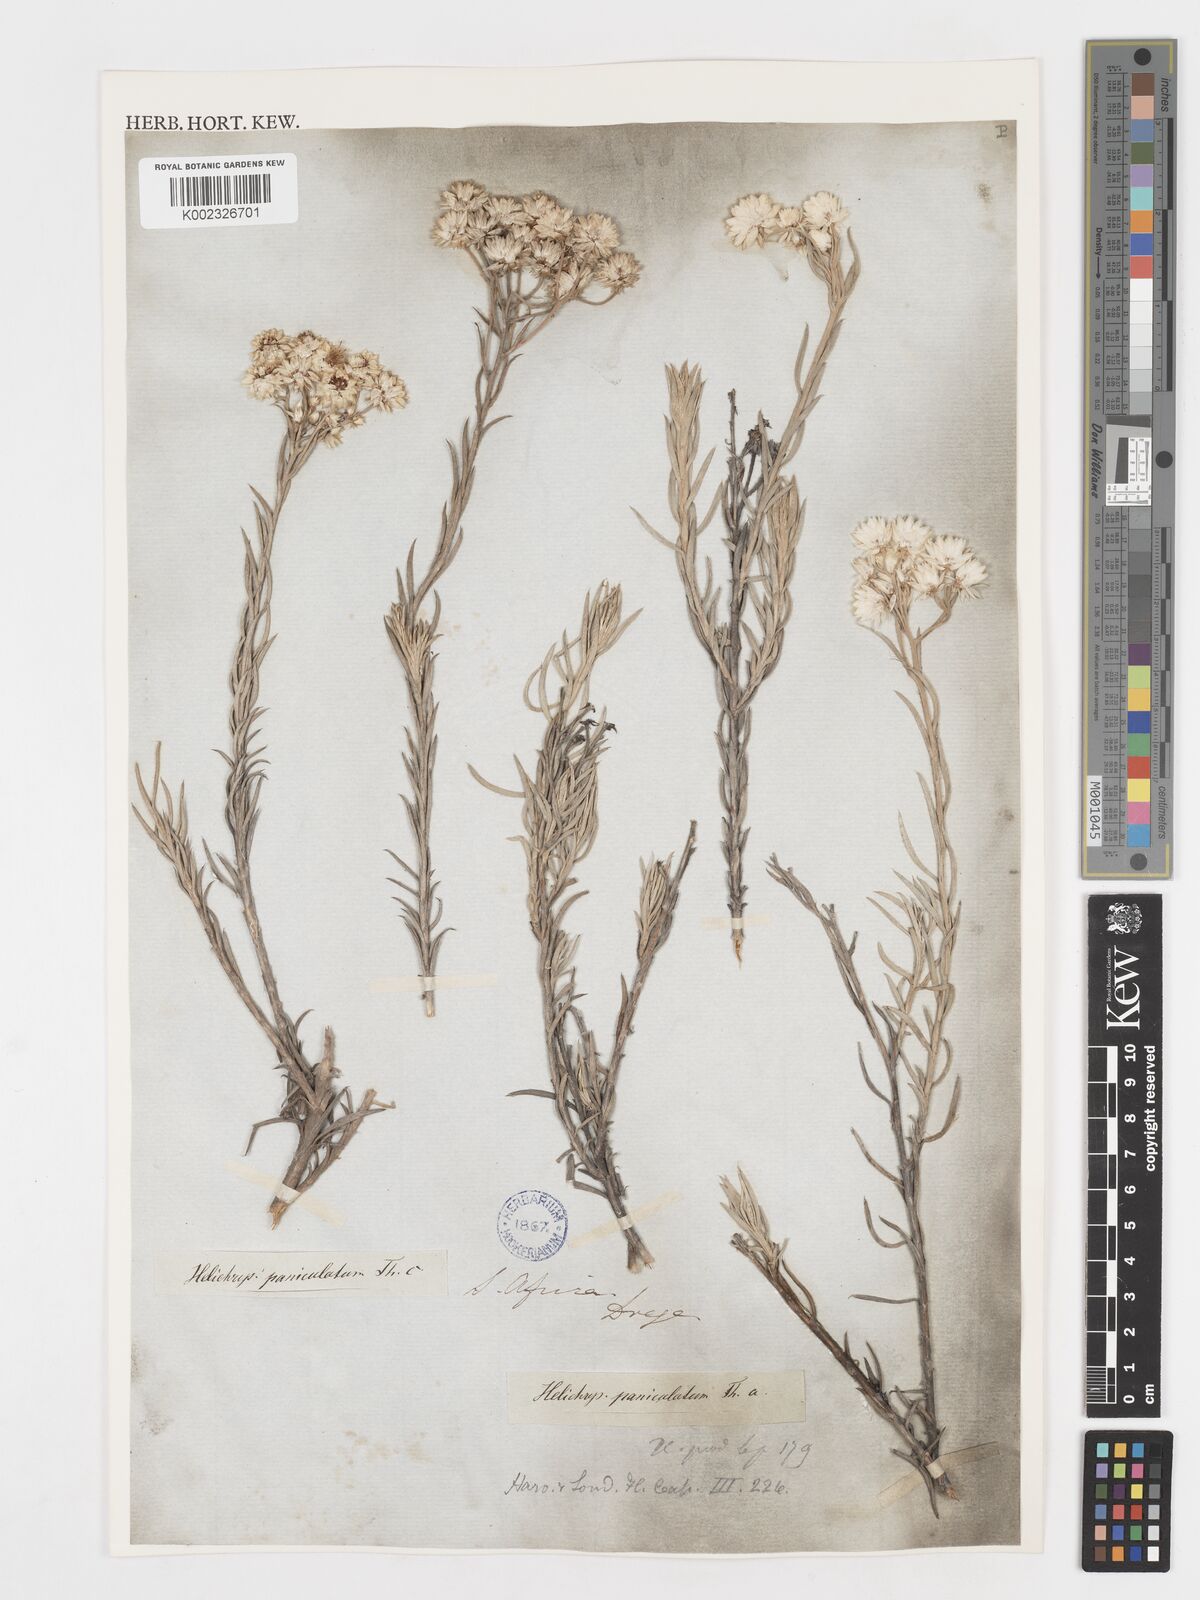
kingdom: Plantae
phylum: Tracheophyta
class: Magnoliopsida
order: Asterales
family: Asteraceae
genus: Achyranthemum
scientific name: Achyranthemum paniculatum
